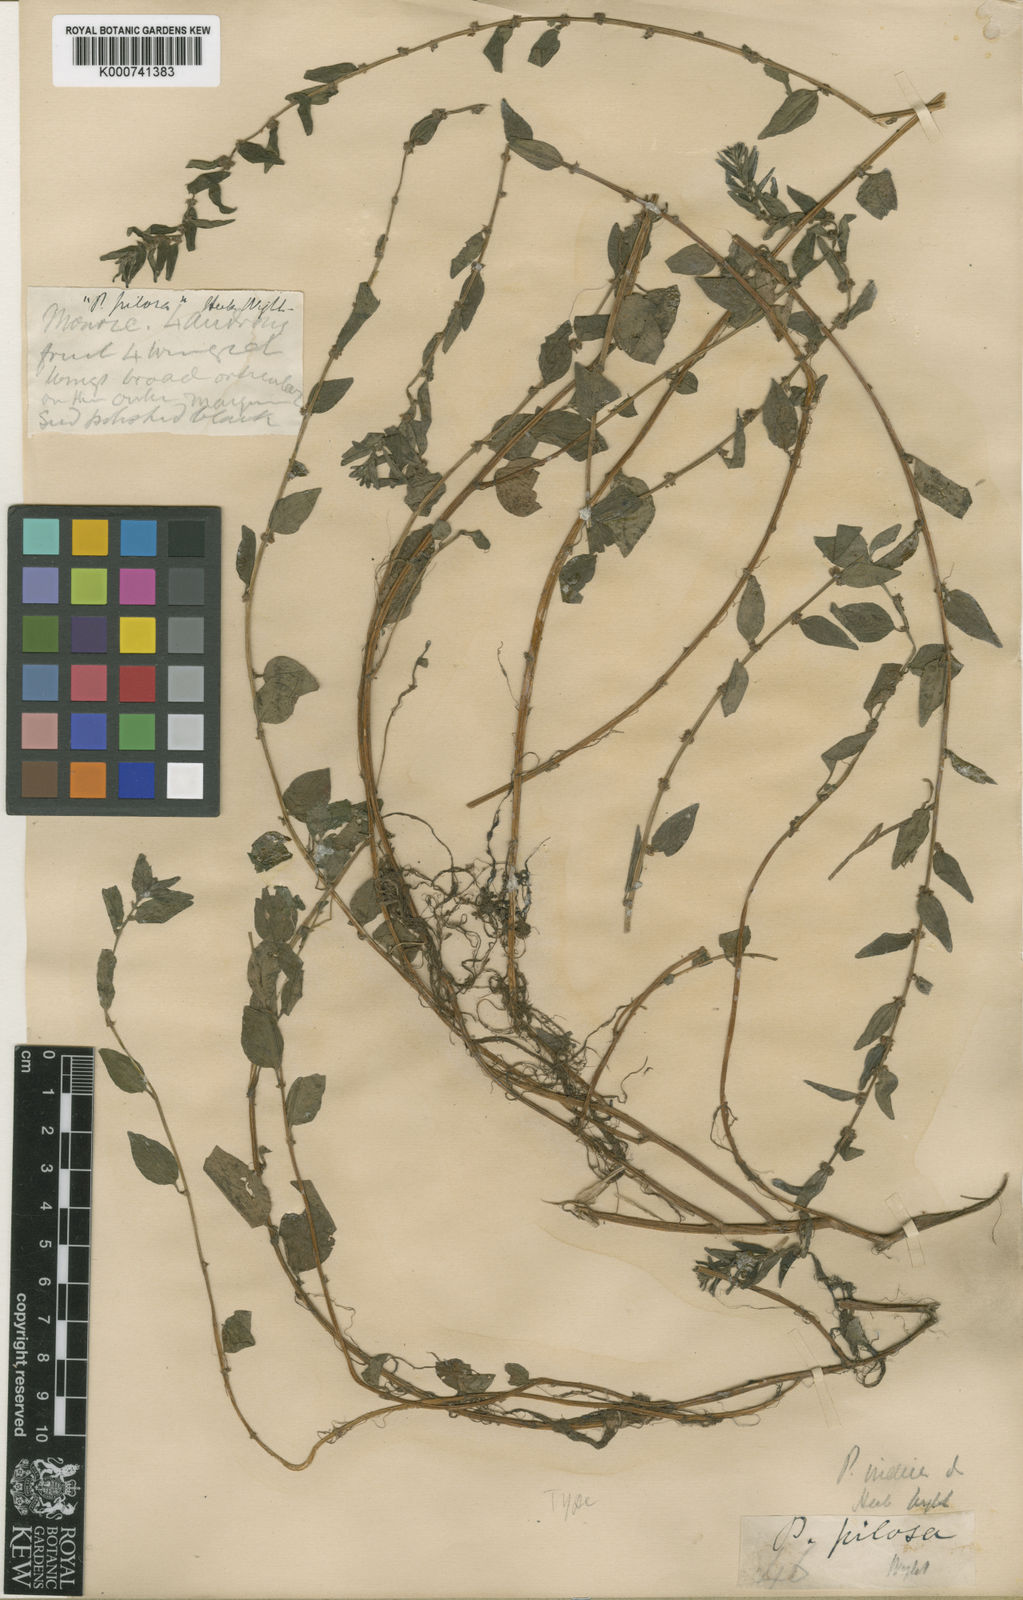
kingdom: Plantae
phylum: Tracheophyta
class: Magnoliopsida
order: Rosales
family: Urticaceae
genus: Pouzolzia
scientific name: Pouzolzia zeylanica
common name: Graceful pouzolzsbush
